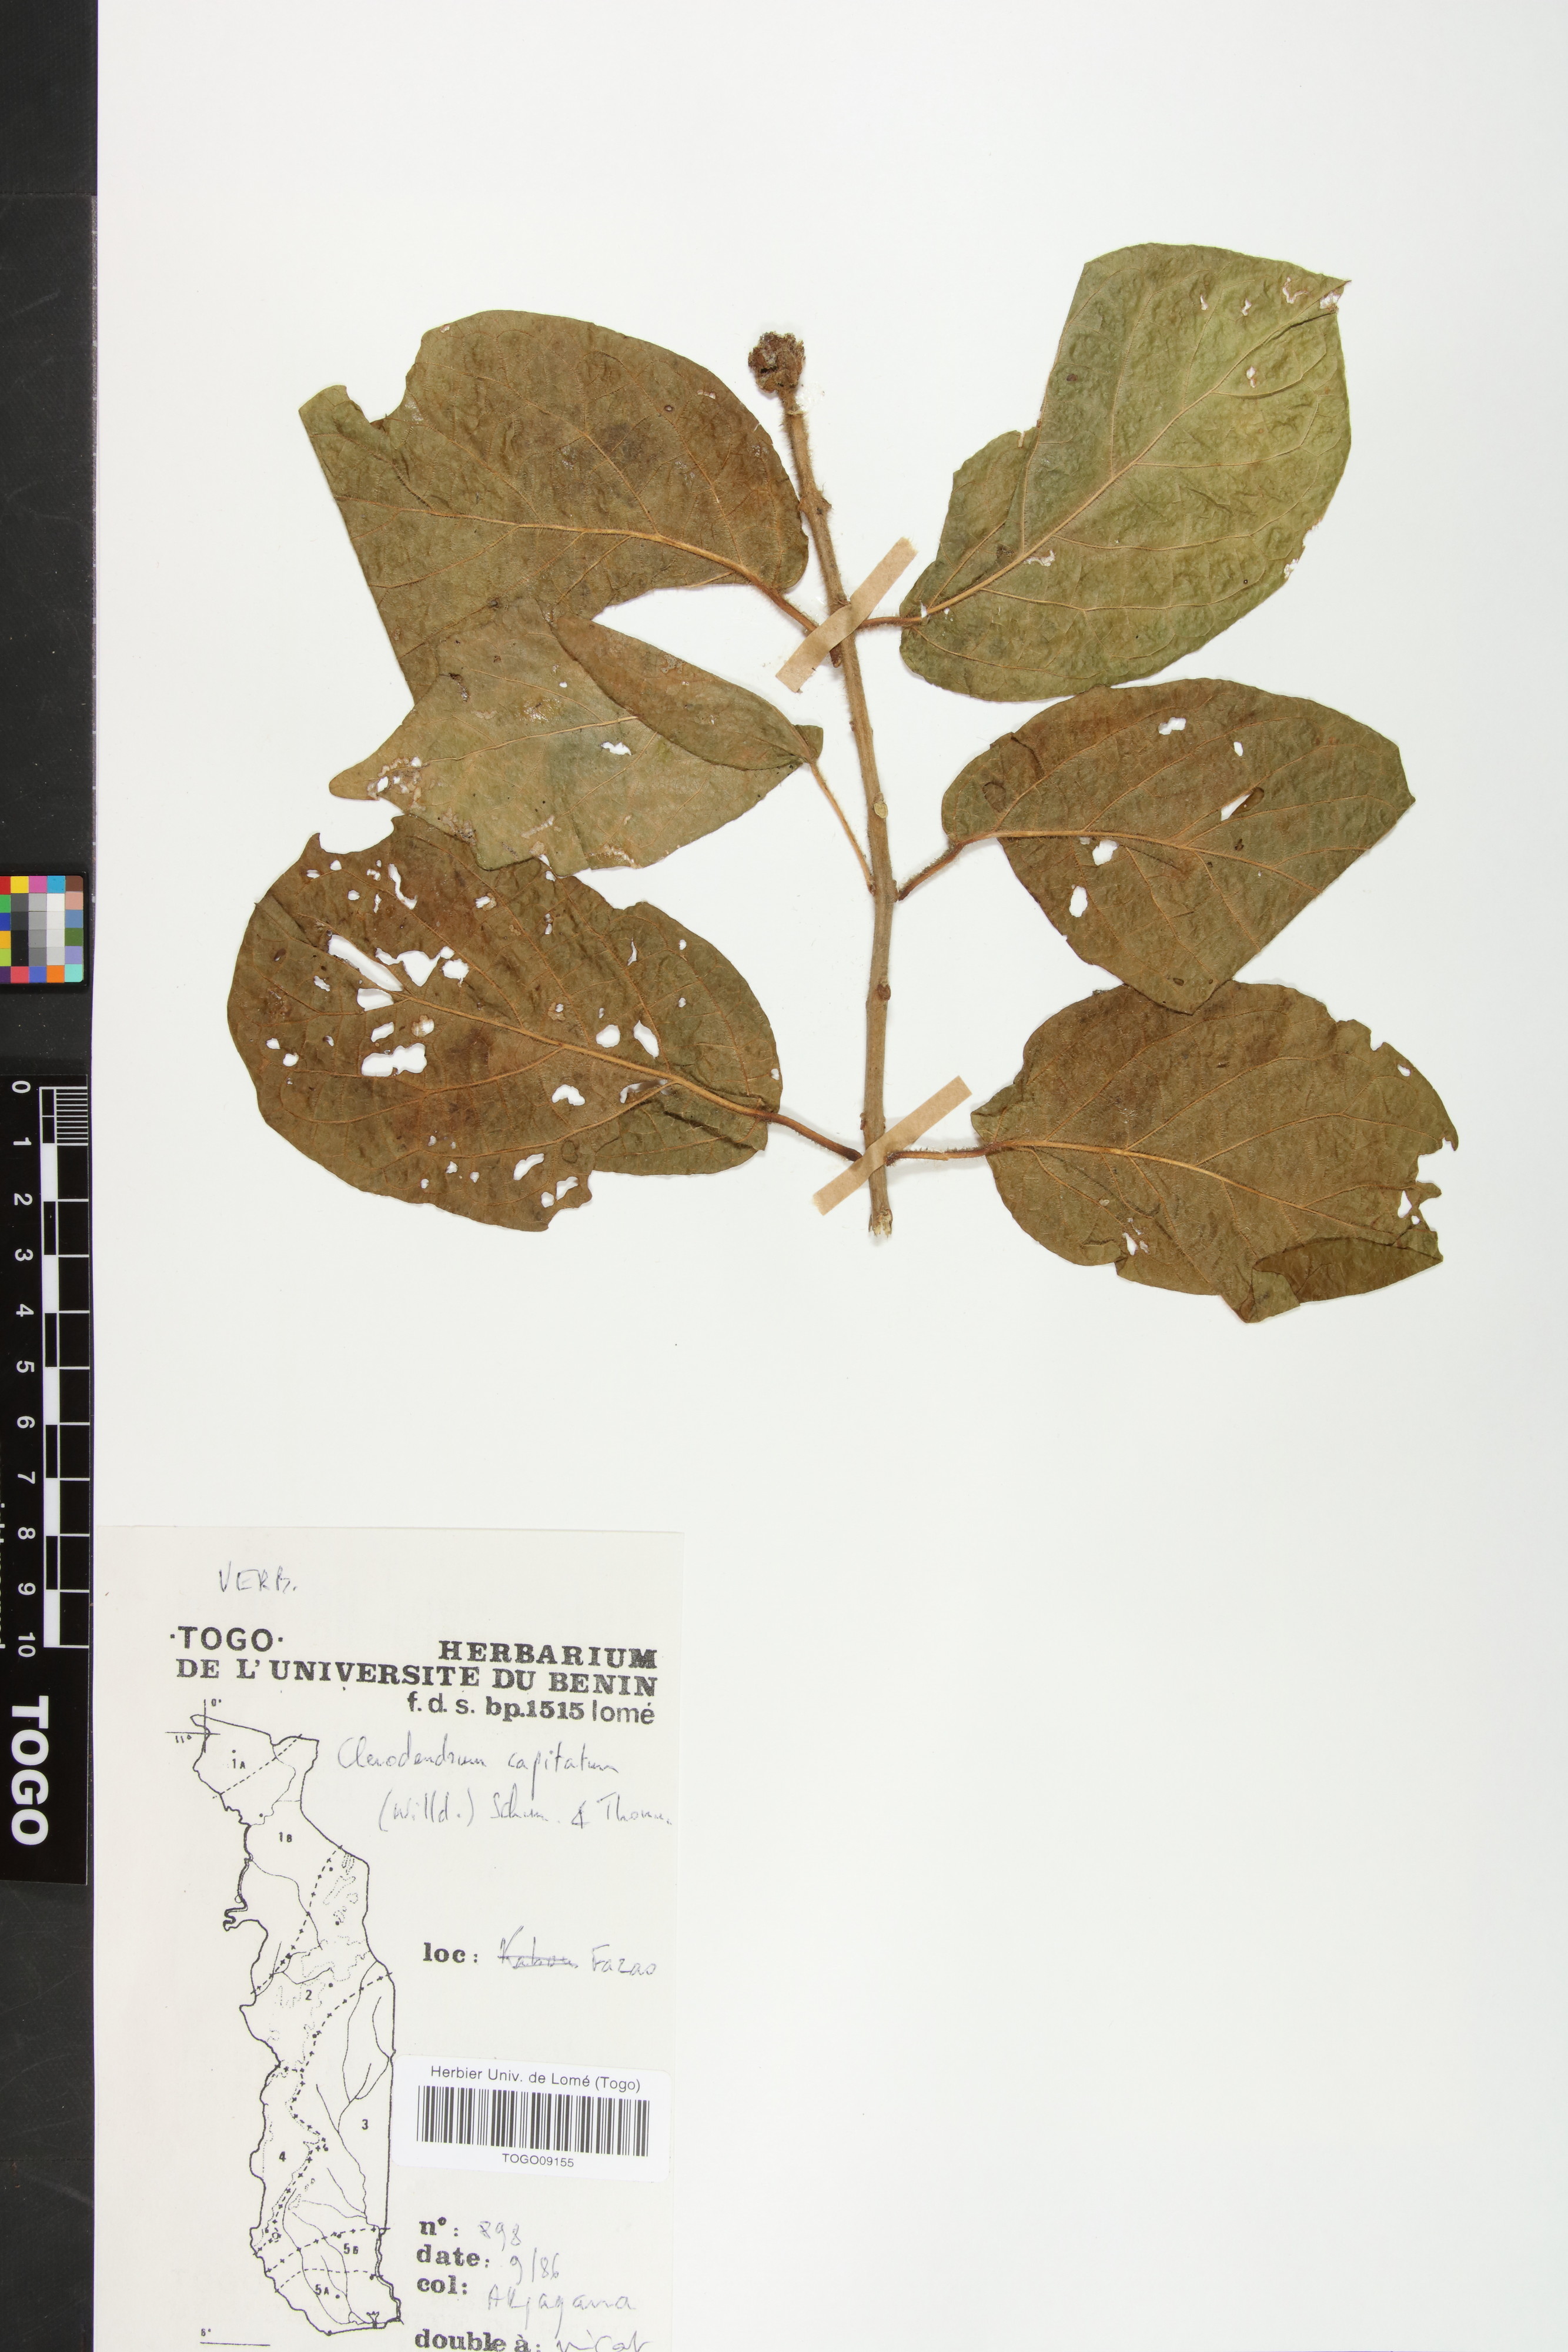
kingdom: Plantae
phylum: Tracheophyta
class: Magnoliopsida
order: Lamiales
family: Lamiaceae
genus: Clerodendrum
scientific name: Clerodendrum
